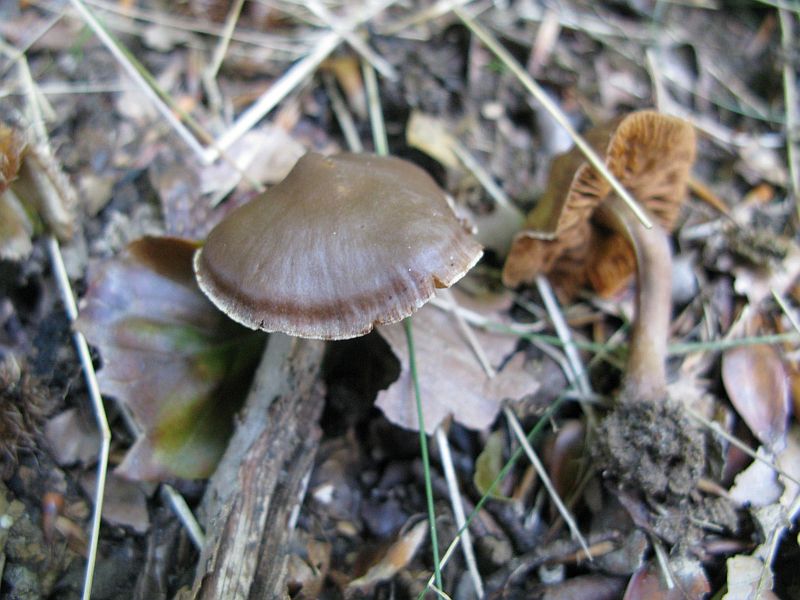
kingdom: Fungi
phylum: Basidiomycota
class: Agaricomycetes
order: Agaricales
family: Hymenogastraceae
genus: Phaeocollybia
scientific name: Phaeocollybia festiva
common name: olivengrøn spidshat
